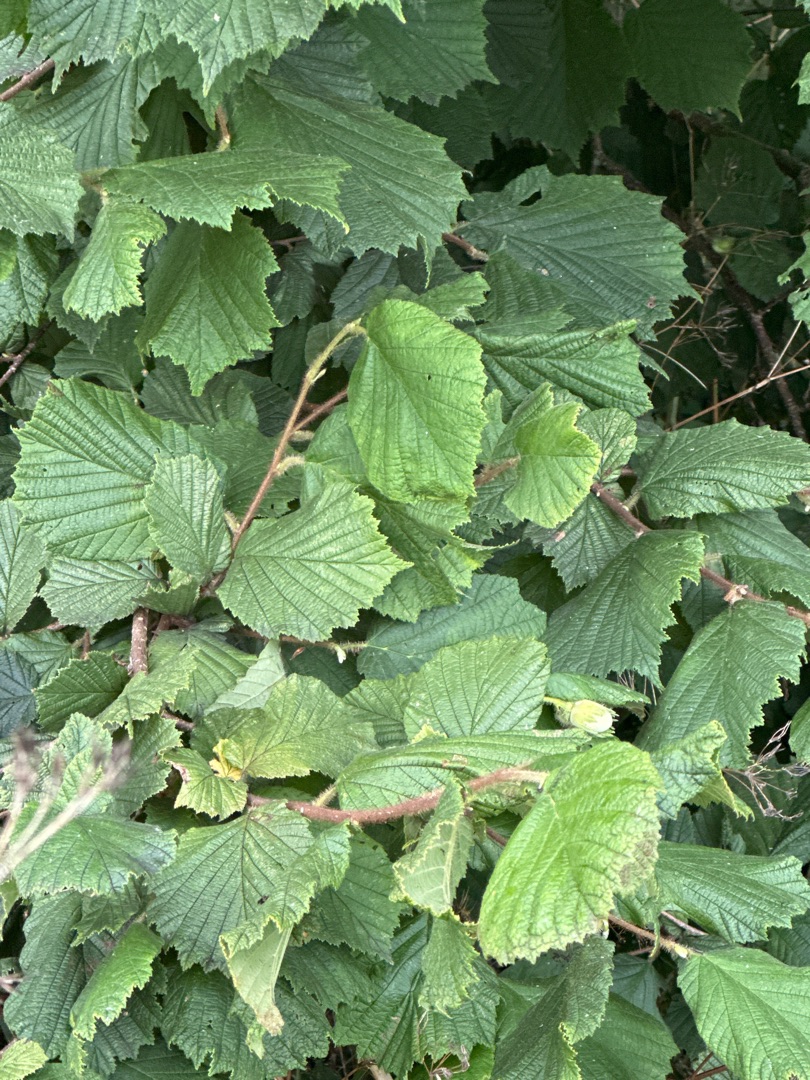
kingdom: Plantae
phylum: Tracheophyta
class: Magnoliopsida
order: Fagales
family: Betulaceae
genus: Corylus
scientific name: Corylus avellana
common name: Hassel
